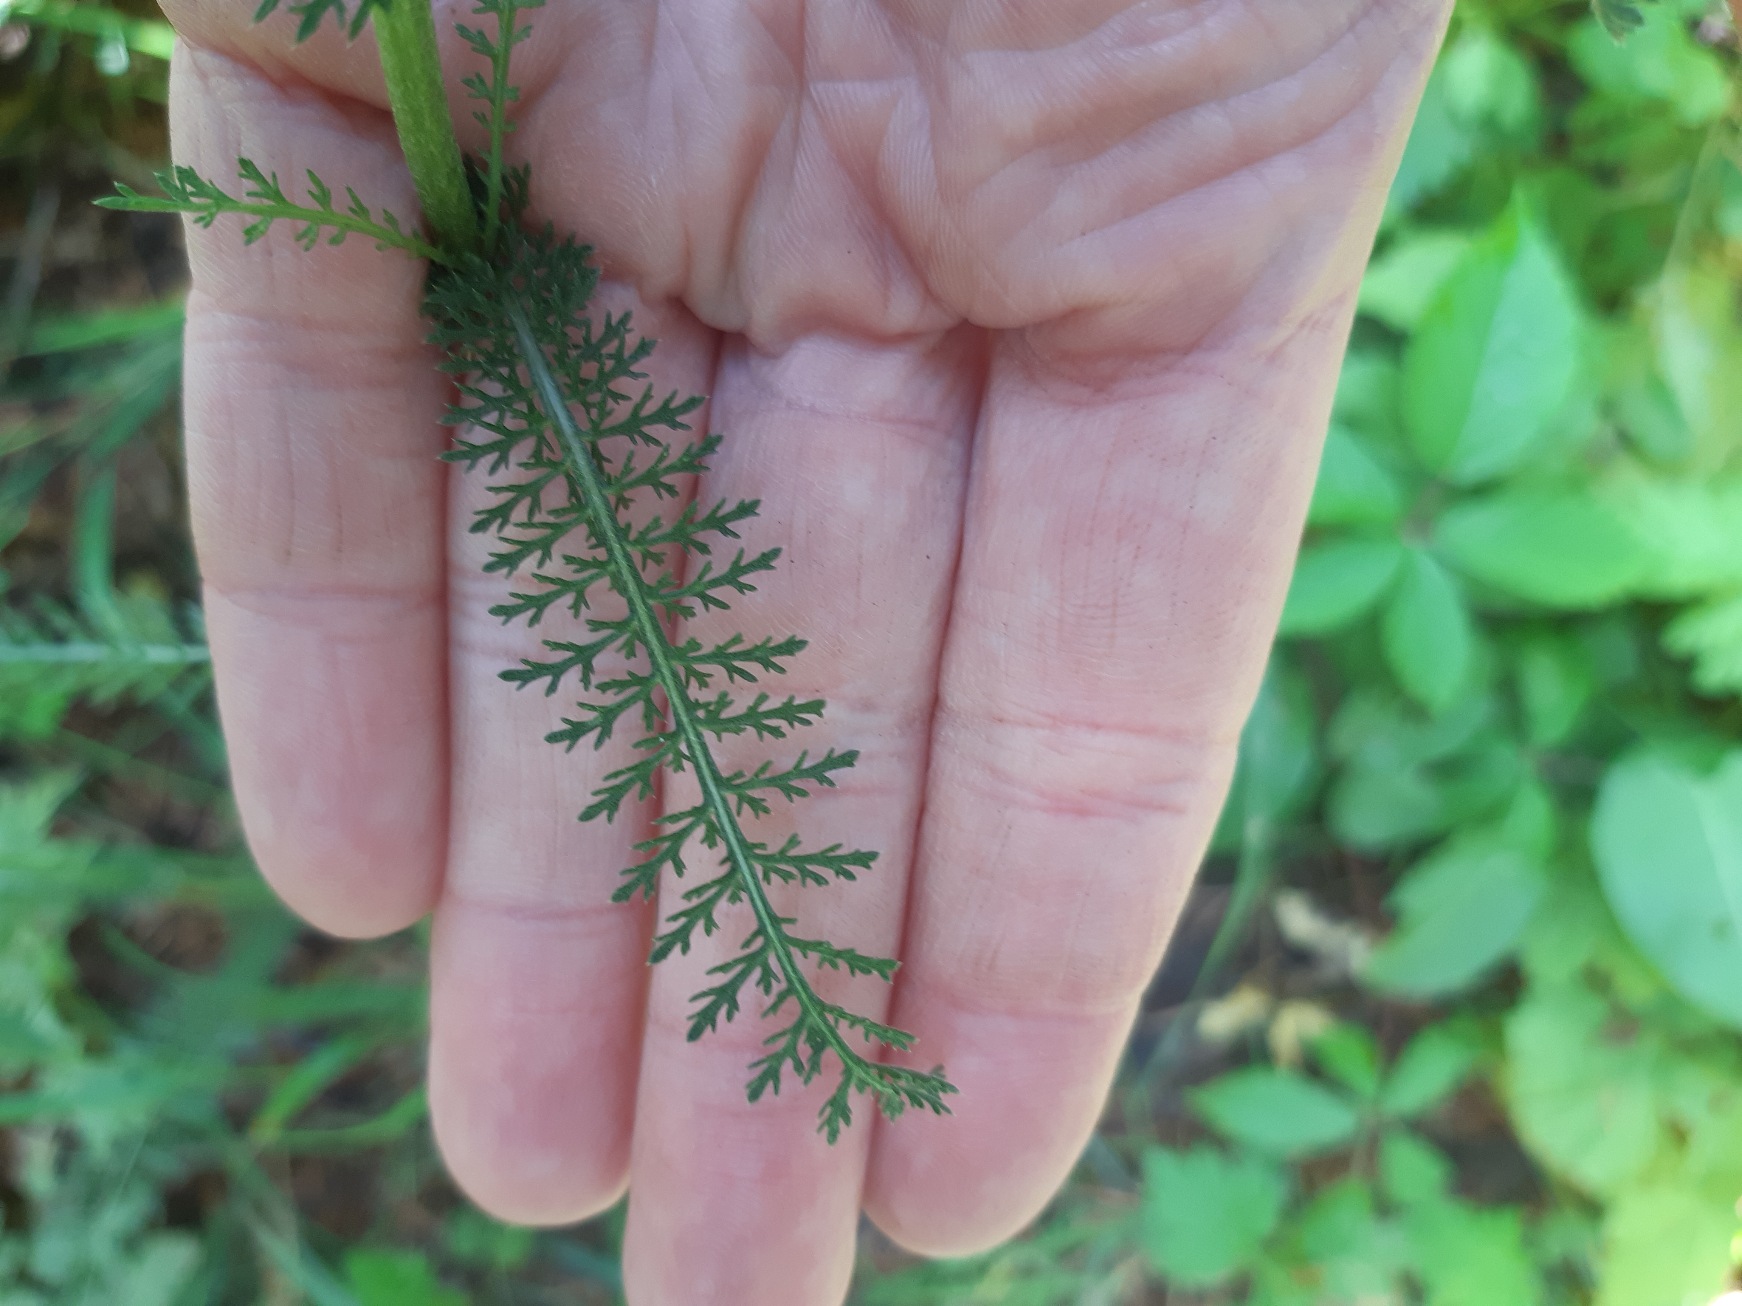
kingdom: Plantae
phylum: Tracheophyta
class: Magnoliopsida
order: Asterales
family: Asteraceae
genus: Achillea
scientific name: Achillea millefolium
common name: Almindelig røllike
